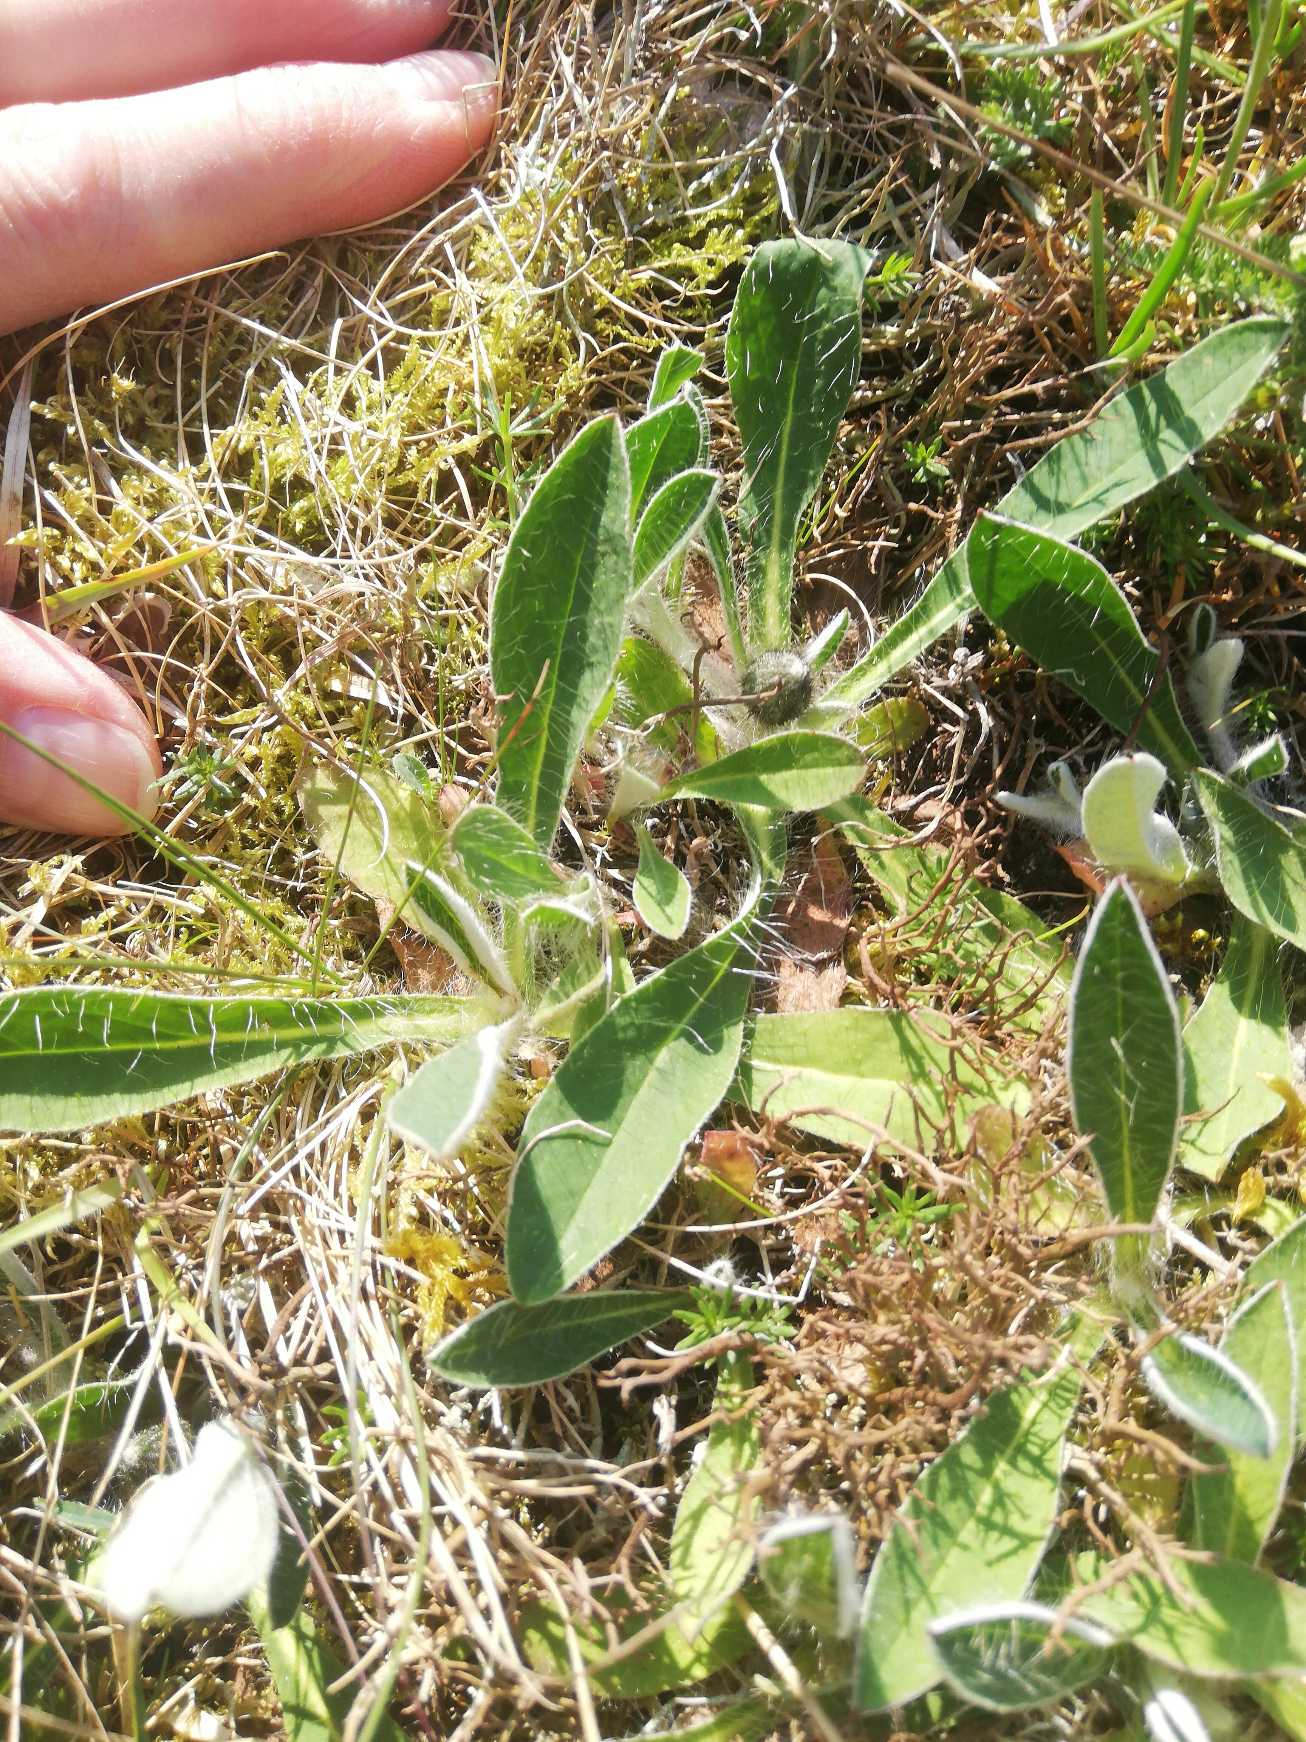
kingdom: Plantae
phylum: Tracheophyta
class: Magnoliopsida
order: Asterales
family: Asteraceae
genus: Pilosella
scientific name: Pilosella officinarum
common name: Håret høgeurt
